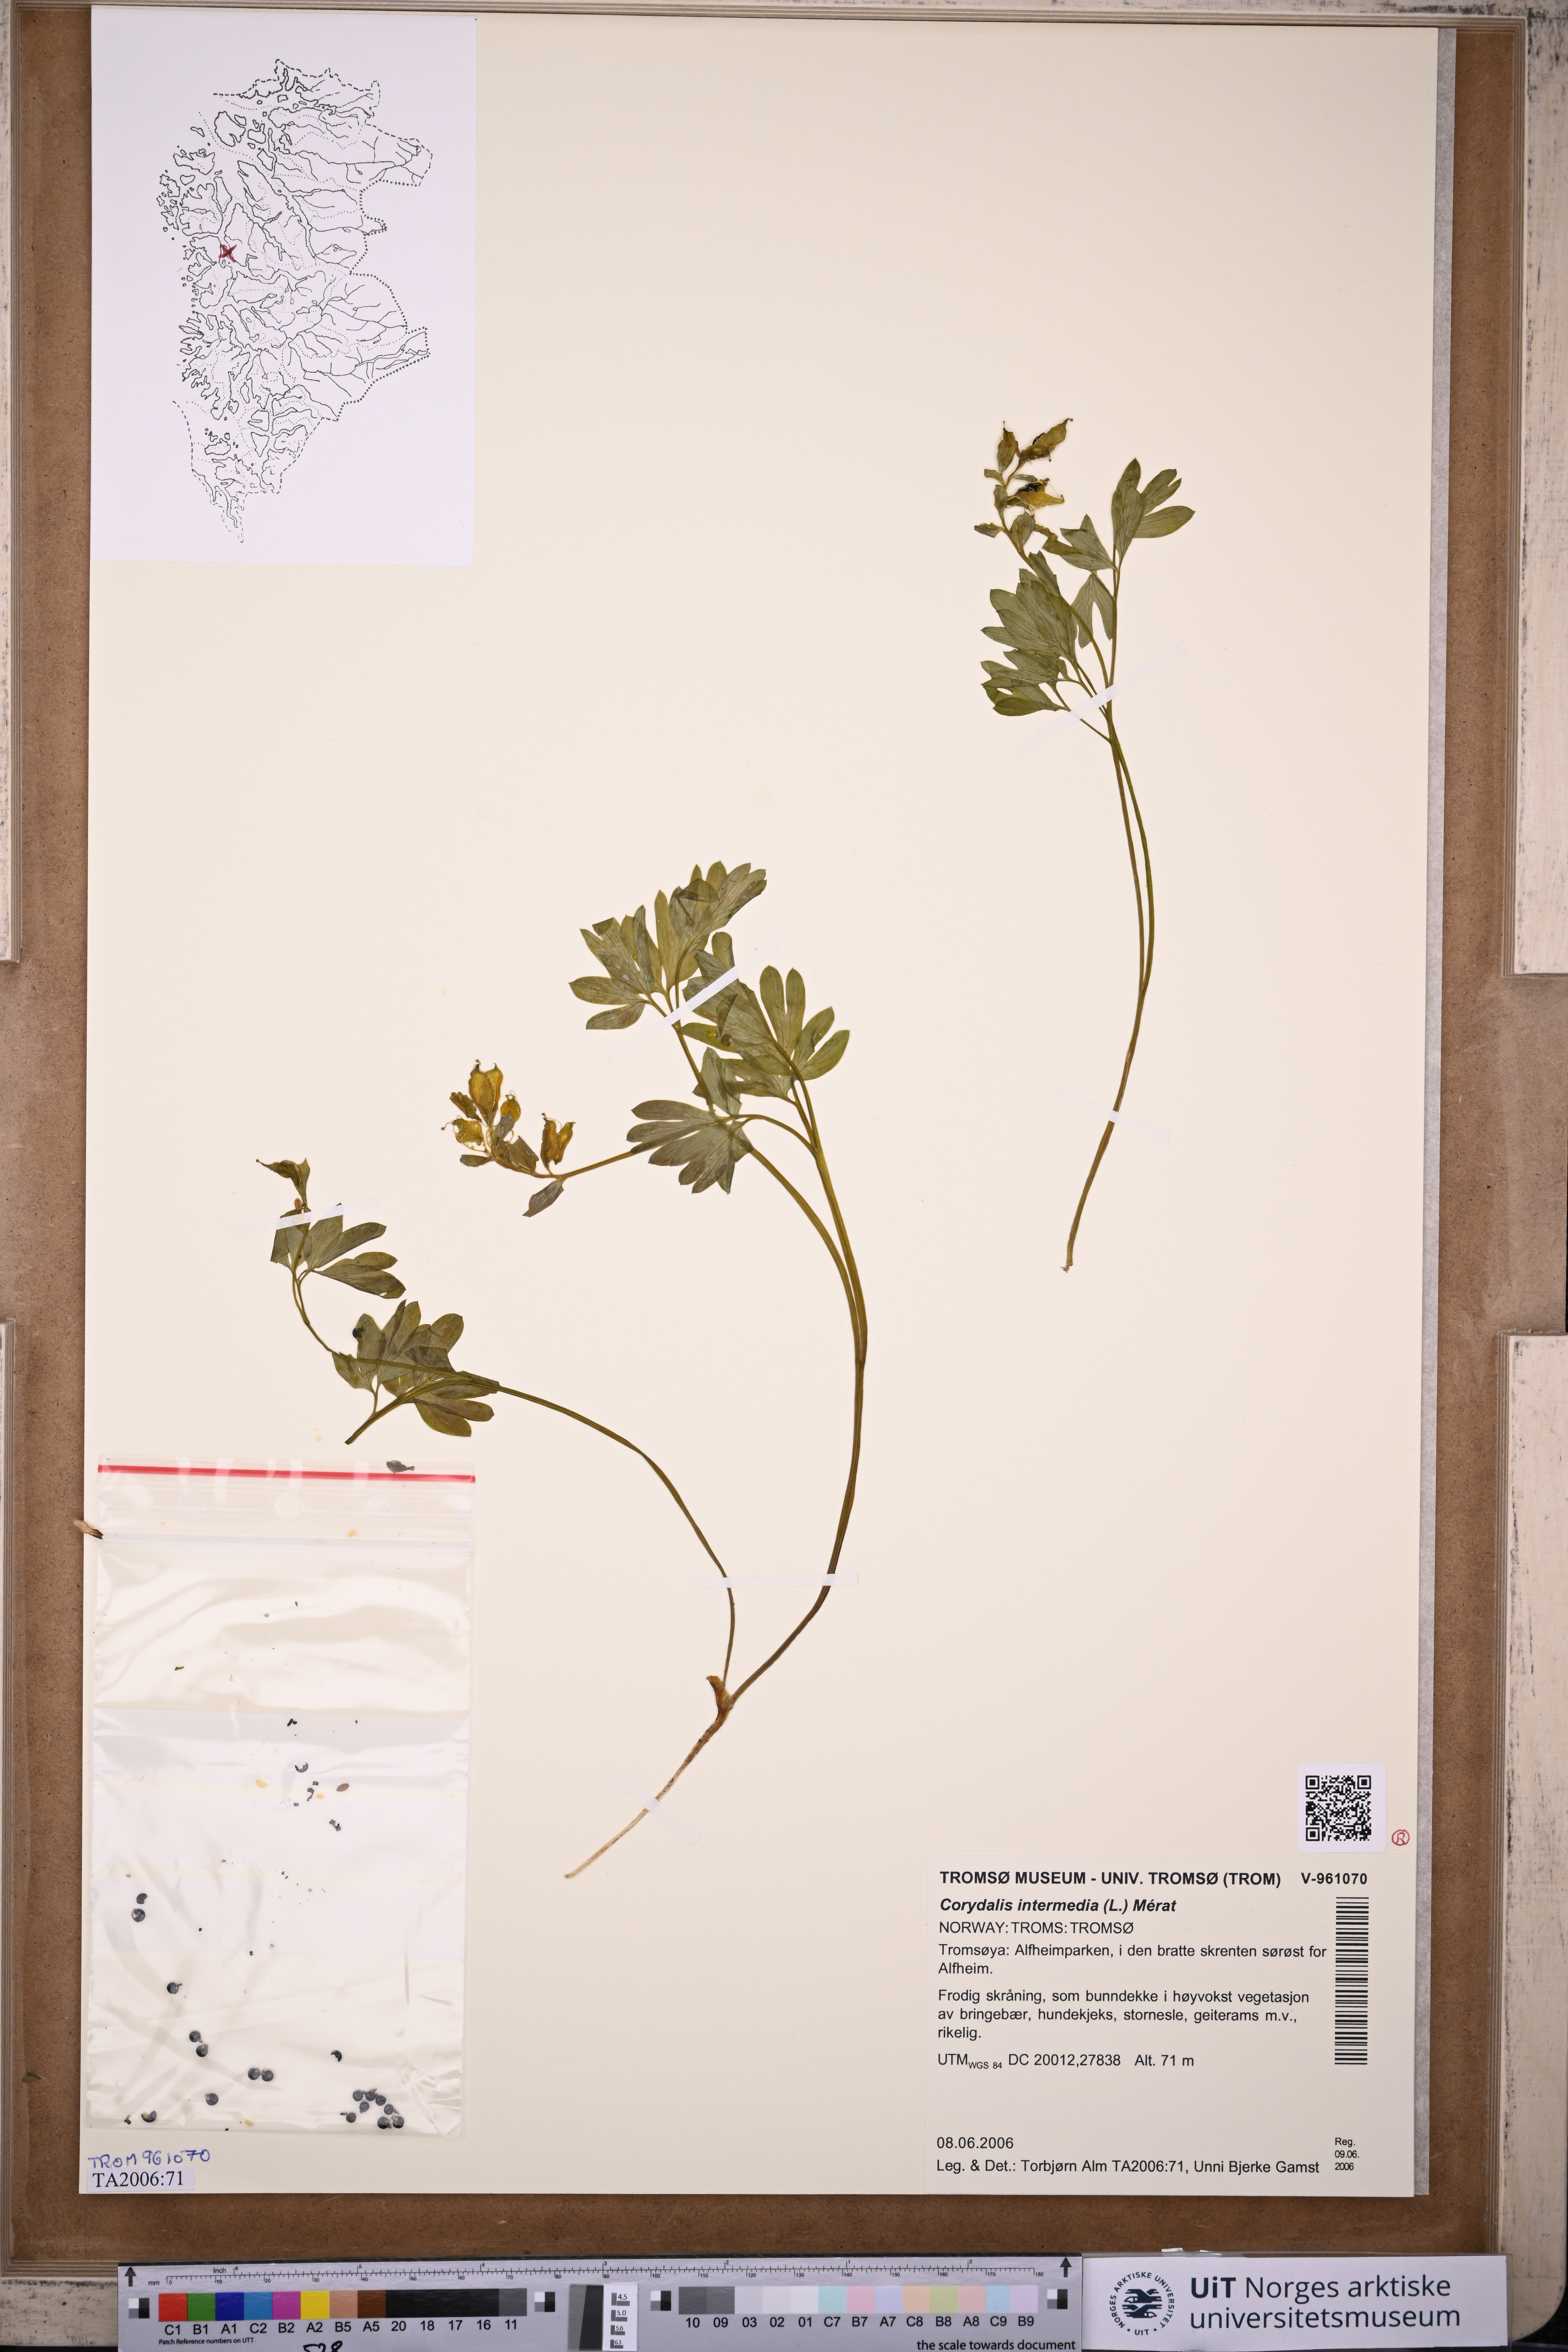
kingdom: Plantae
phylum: Tracheophyta
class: Magnoliopsida
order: Ranunculales
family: Papaveraceae
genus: Corydalis
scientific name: Corydalis intermedia
